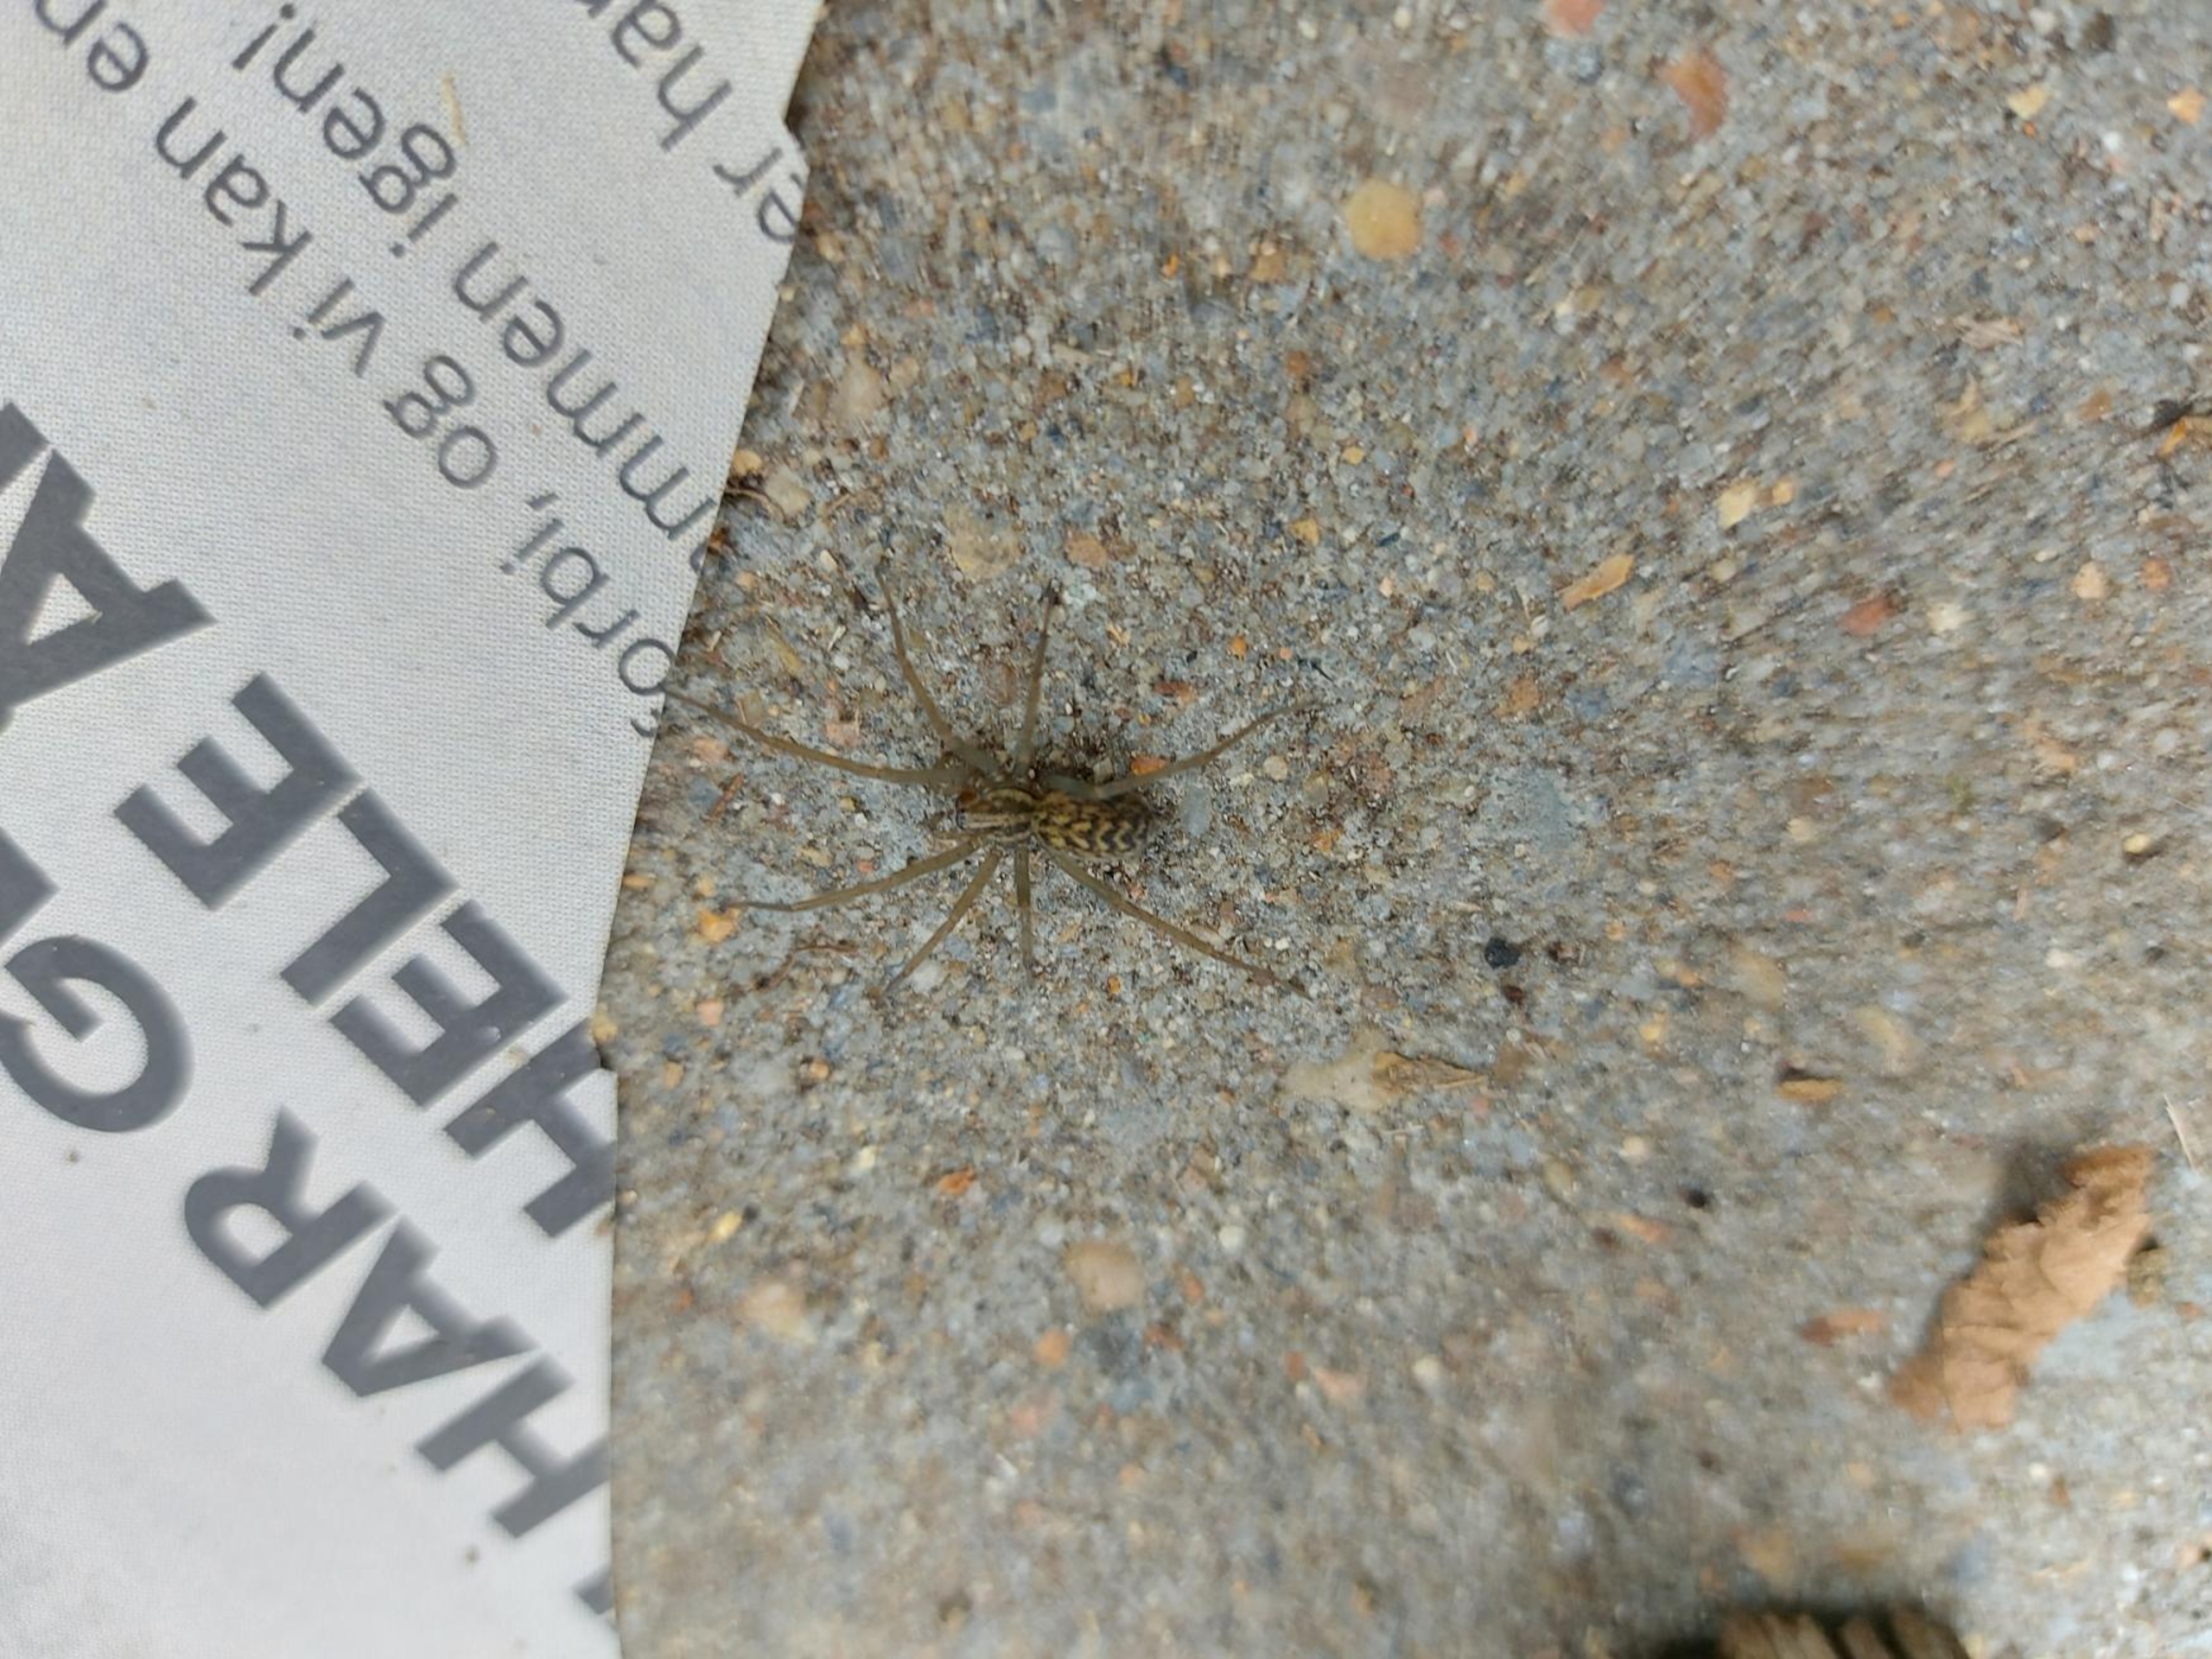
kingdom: Animalia
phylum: Arthropoda
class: Arachnida
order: Araneae
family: Agelenidae
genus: Eratigena
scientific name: Eratigena atrica
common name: Stor husedderkop
